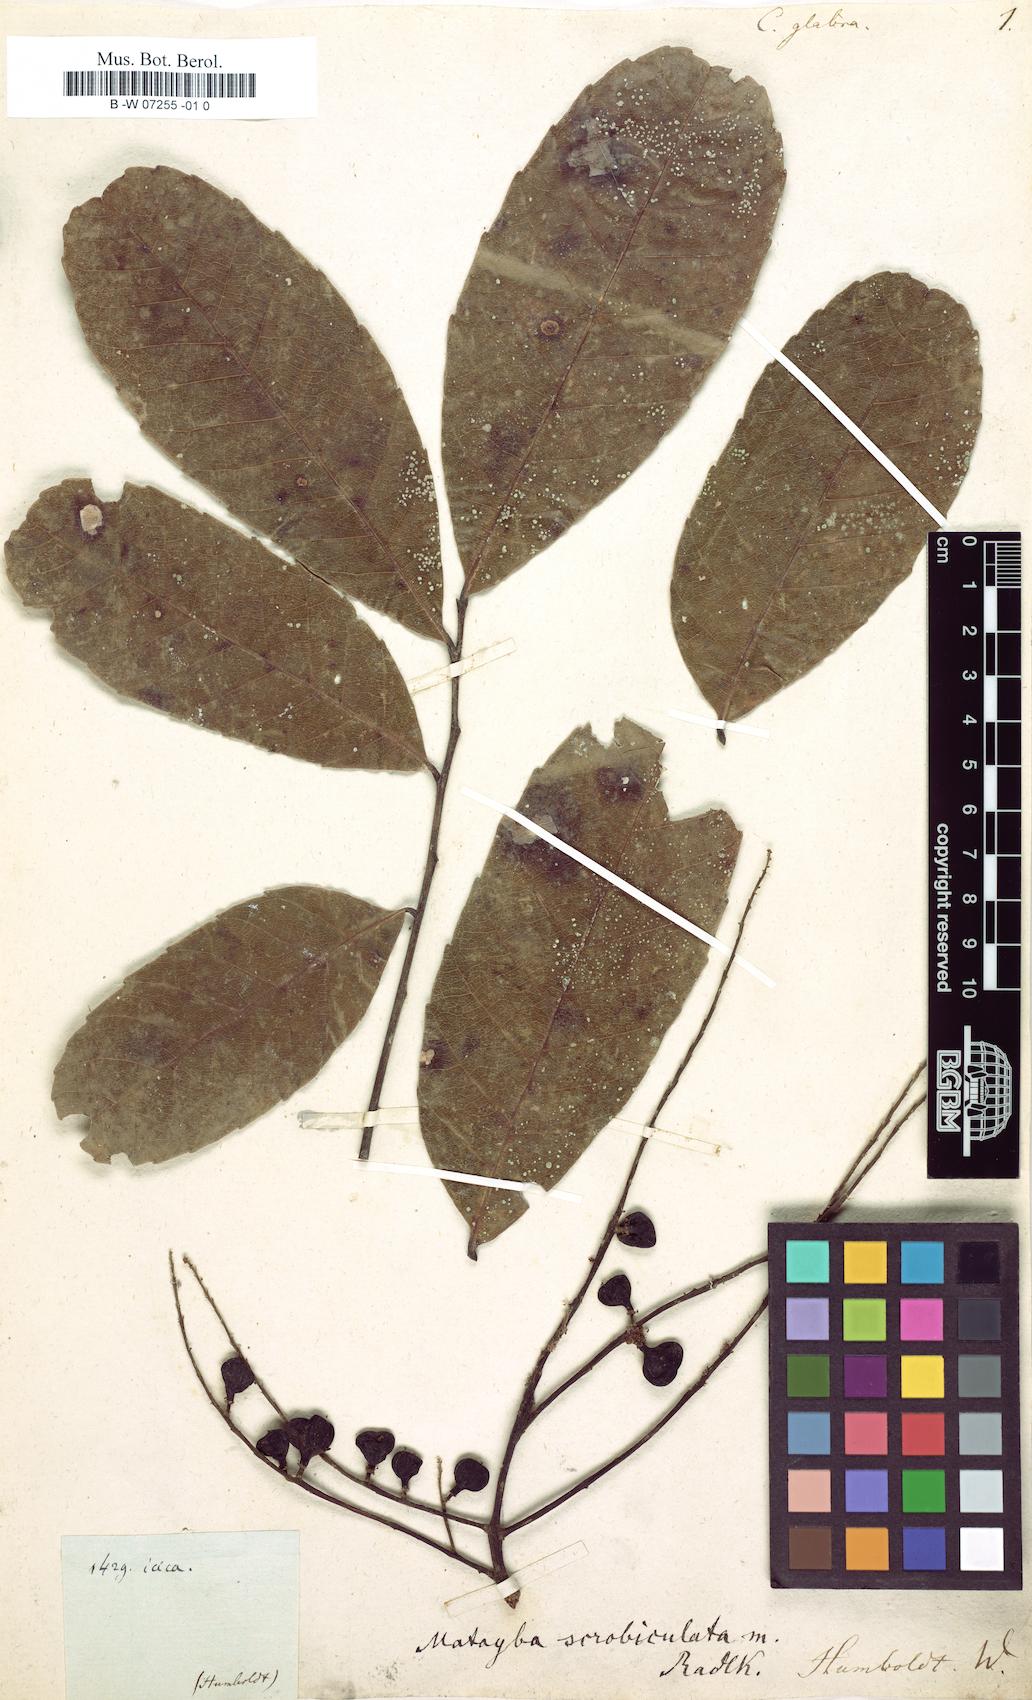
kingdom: Plantae
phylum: Tracheophyta
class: Magnoliopsida
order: Sapindales
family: Sapindaceae
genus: Cupania
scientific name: Cupania glabra
